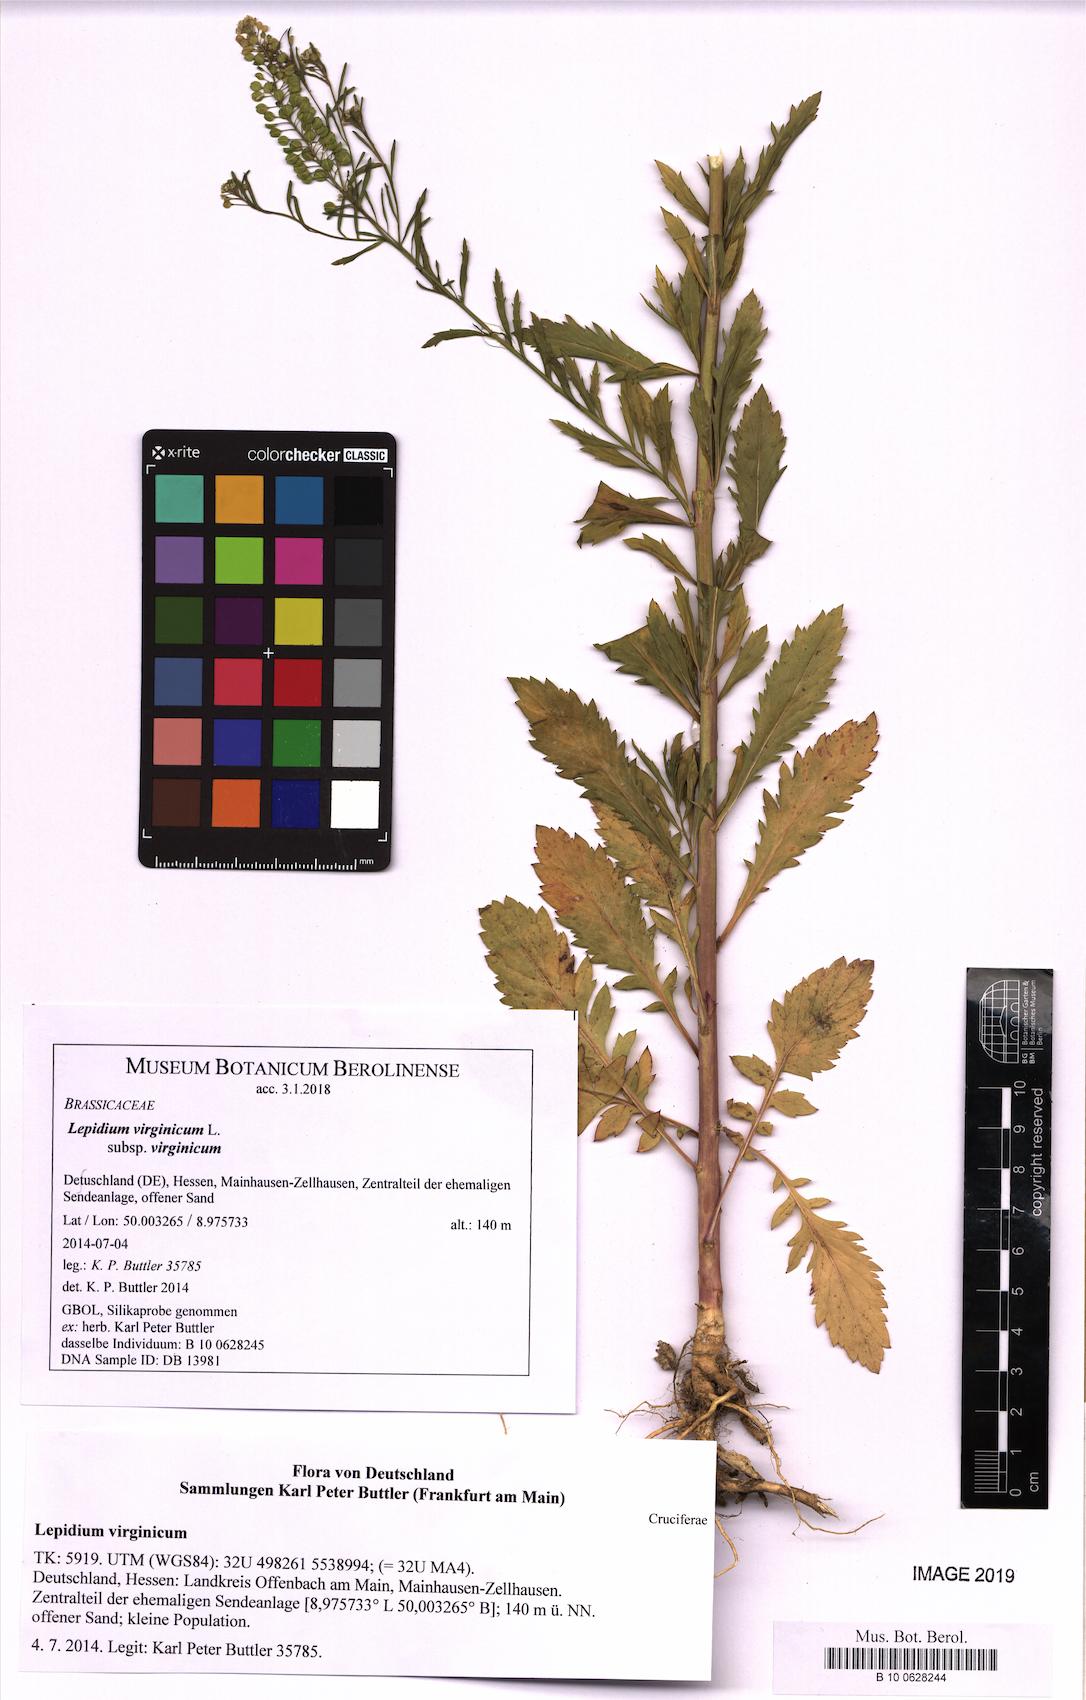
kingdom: Plantae
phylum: Tracheophyta
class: Magnoliopsida
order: Brassicales
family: Brassicaceae
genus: Lepidium
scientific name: Lepidium virginicum
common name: Least pepperwort
